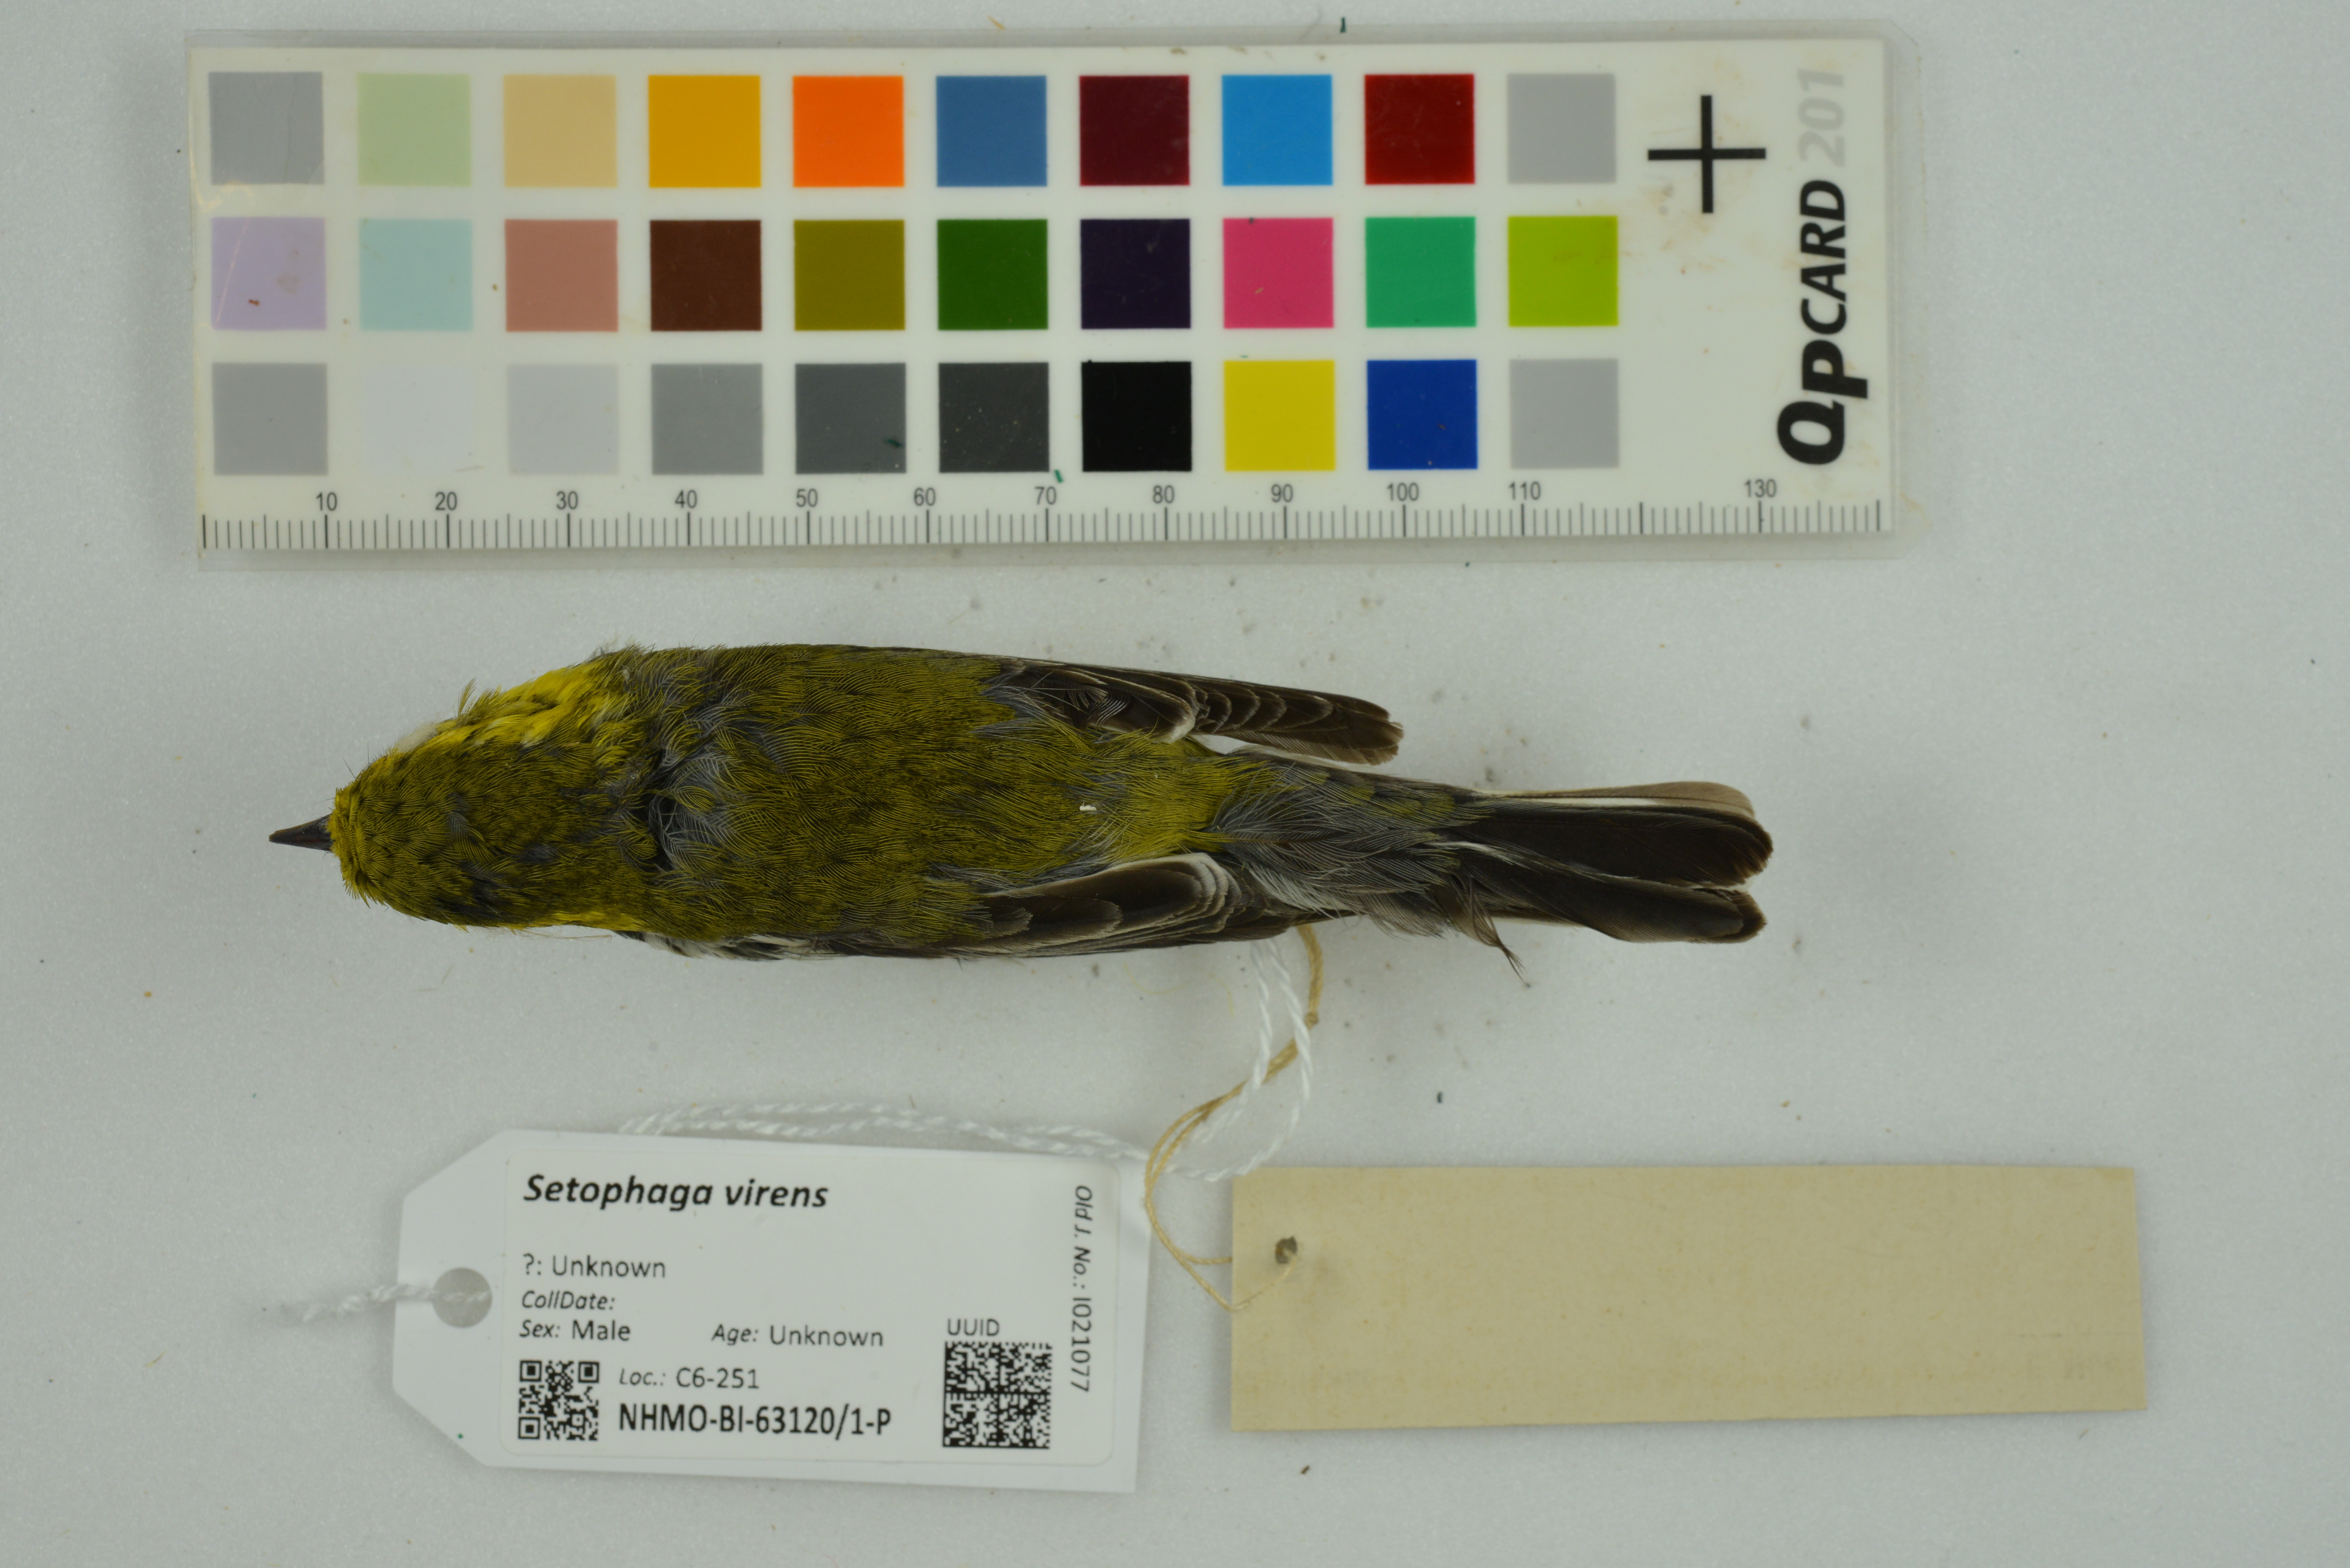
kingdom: Animalia
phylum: Chordata
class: Aves
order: Passeriformes
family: Parulidae
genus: Setophaga
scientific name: Setophaga virens
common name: Black-throated green warbler
